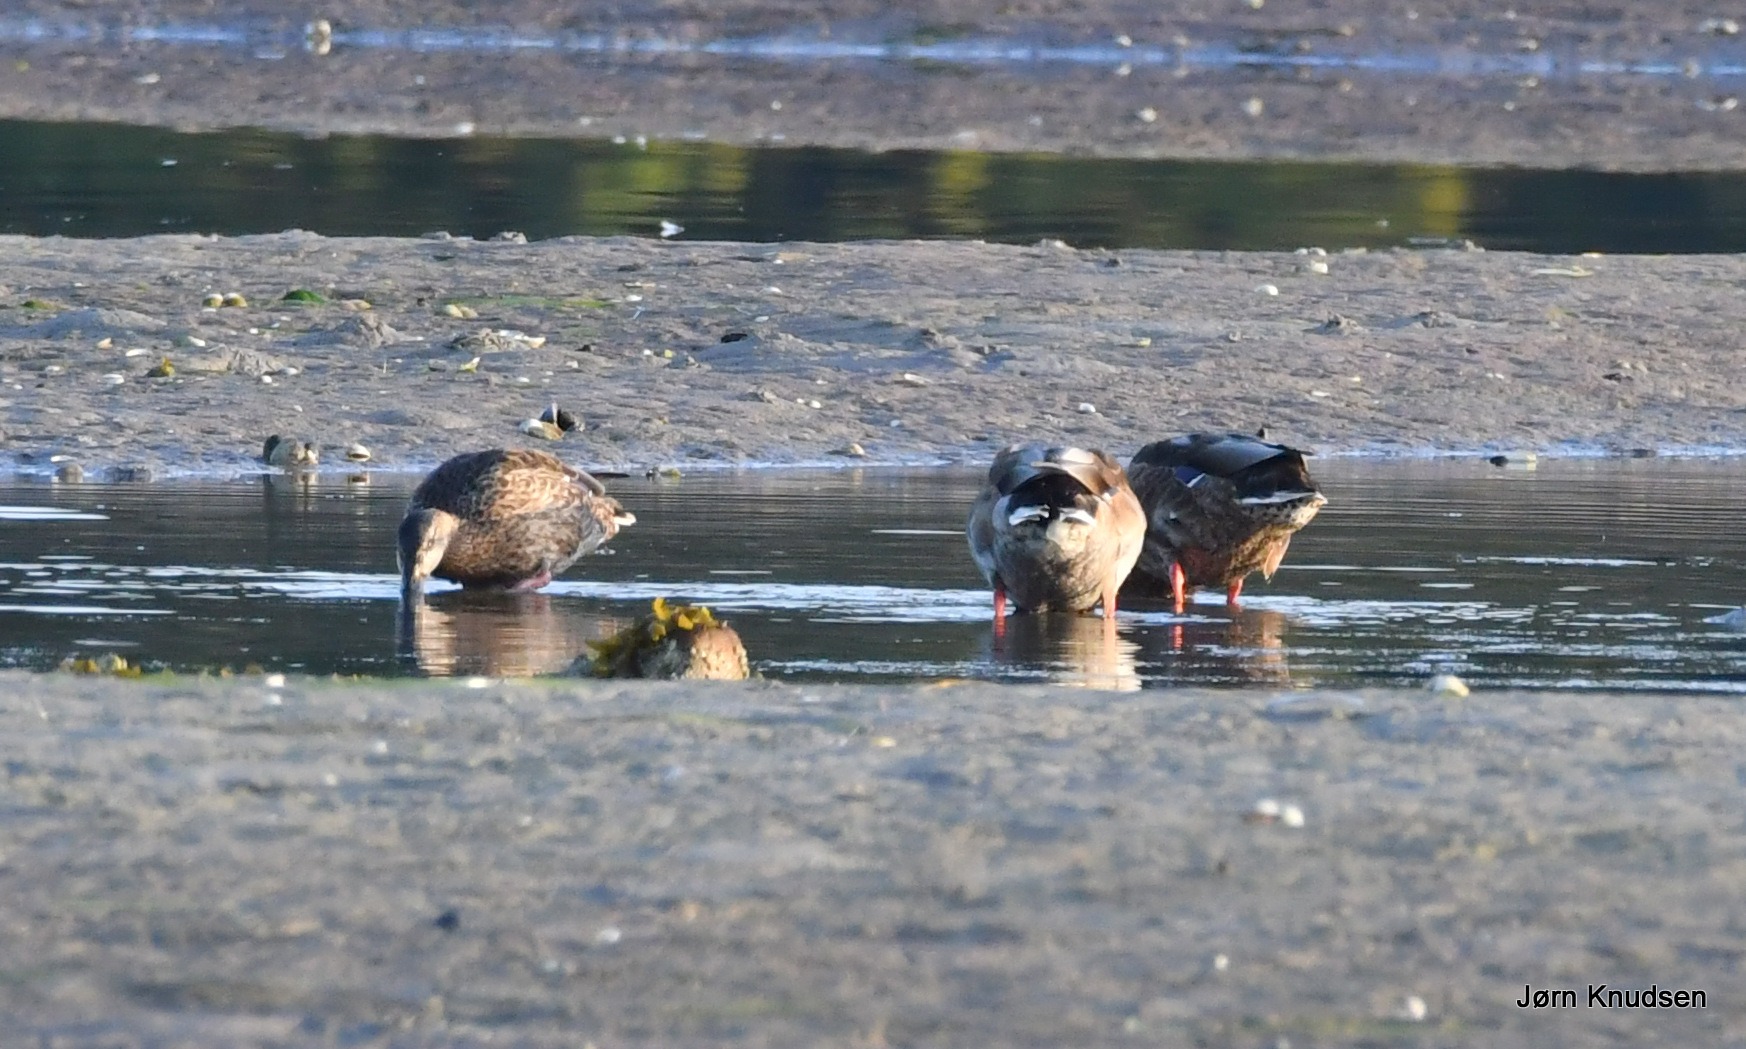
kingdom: Animalia
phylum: Chordata
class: Aves
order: Anseriformes
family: Anatidae
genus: Anas
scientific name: Anas platyrhynchos
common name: Gråand
